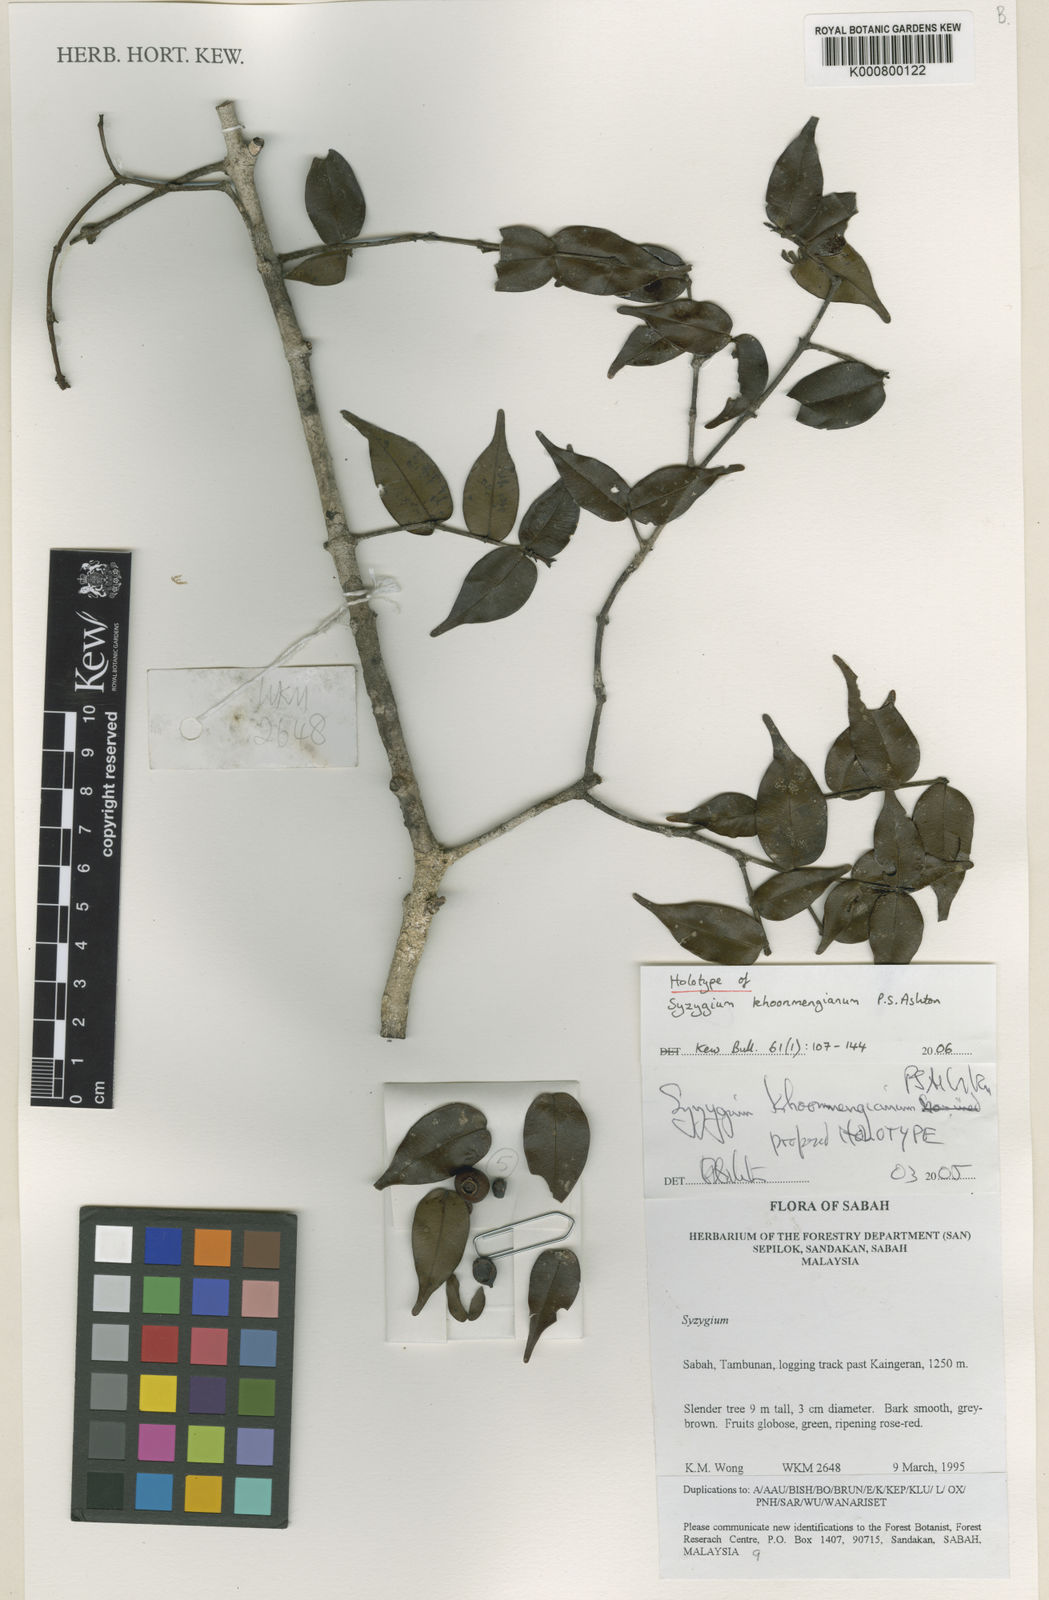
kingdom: Plantae
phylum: Tracheophyta
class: Magnoliopsida
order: Myrtales
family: Myrtaceae
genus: Syzygium
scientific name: Syzygium khoonmengianum
